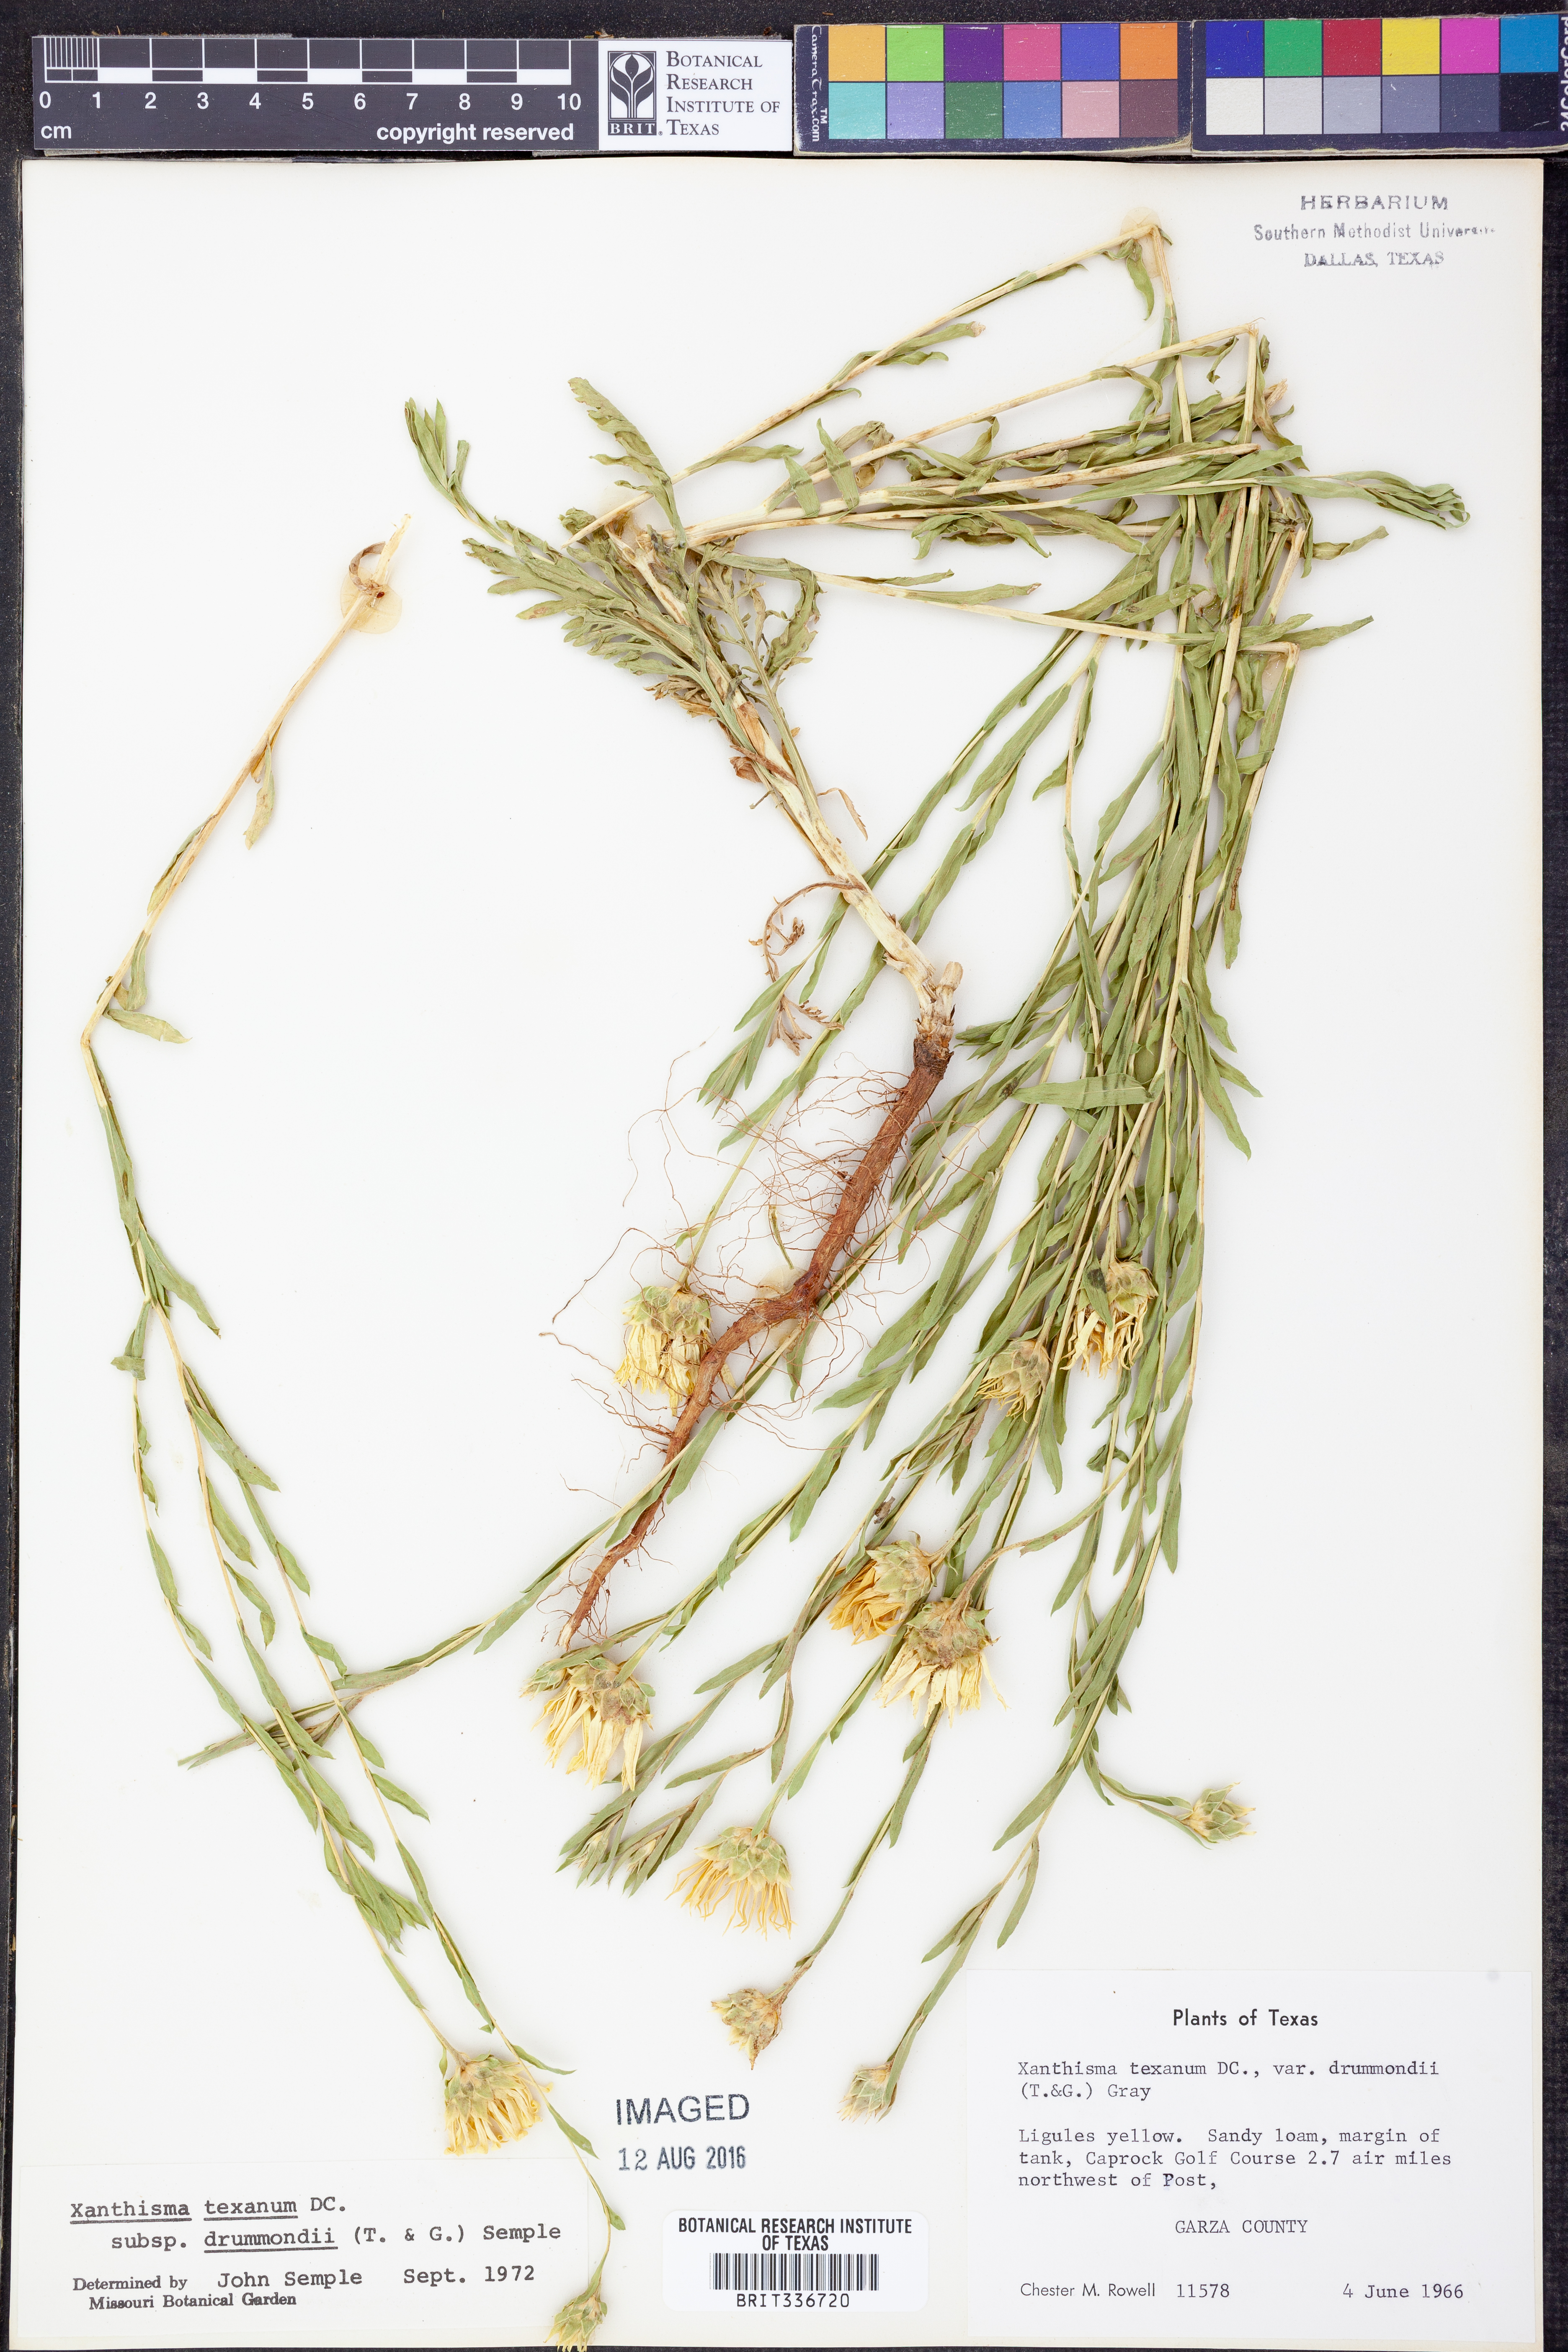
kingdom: Plantae
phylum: Tracheophyta
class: Magnoliopsida
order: Asterales
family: Asteraceae
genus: Xanthisma
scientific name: Xanthisma texanum
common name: Texas sleepy daisy
